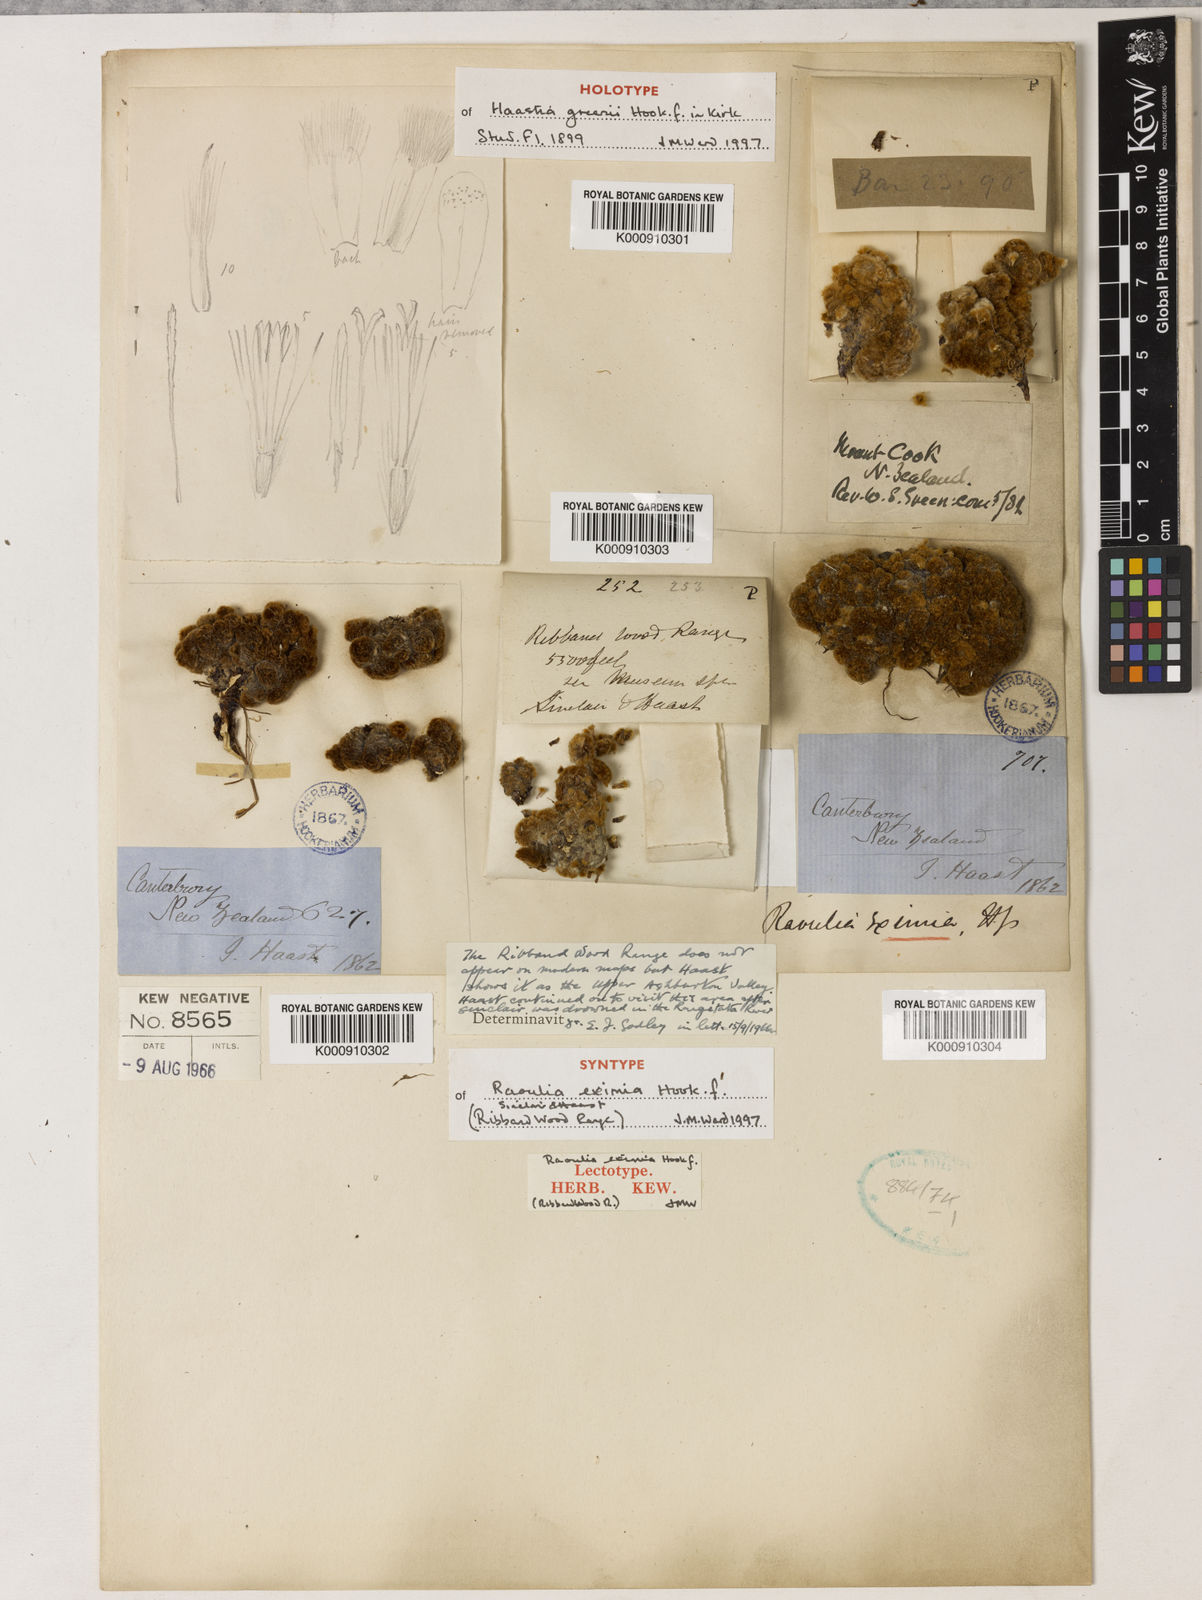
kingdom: Plantae
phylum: Tracheophyta
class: Magnoliopsida
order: Asterales
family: Asteraceae
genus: Raoulia
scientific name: Raoulia eximia
